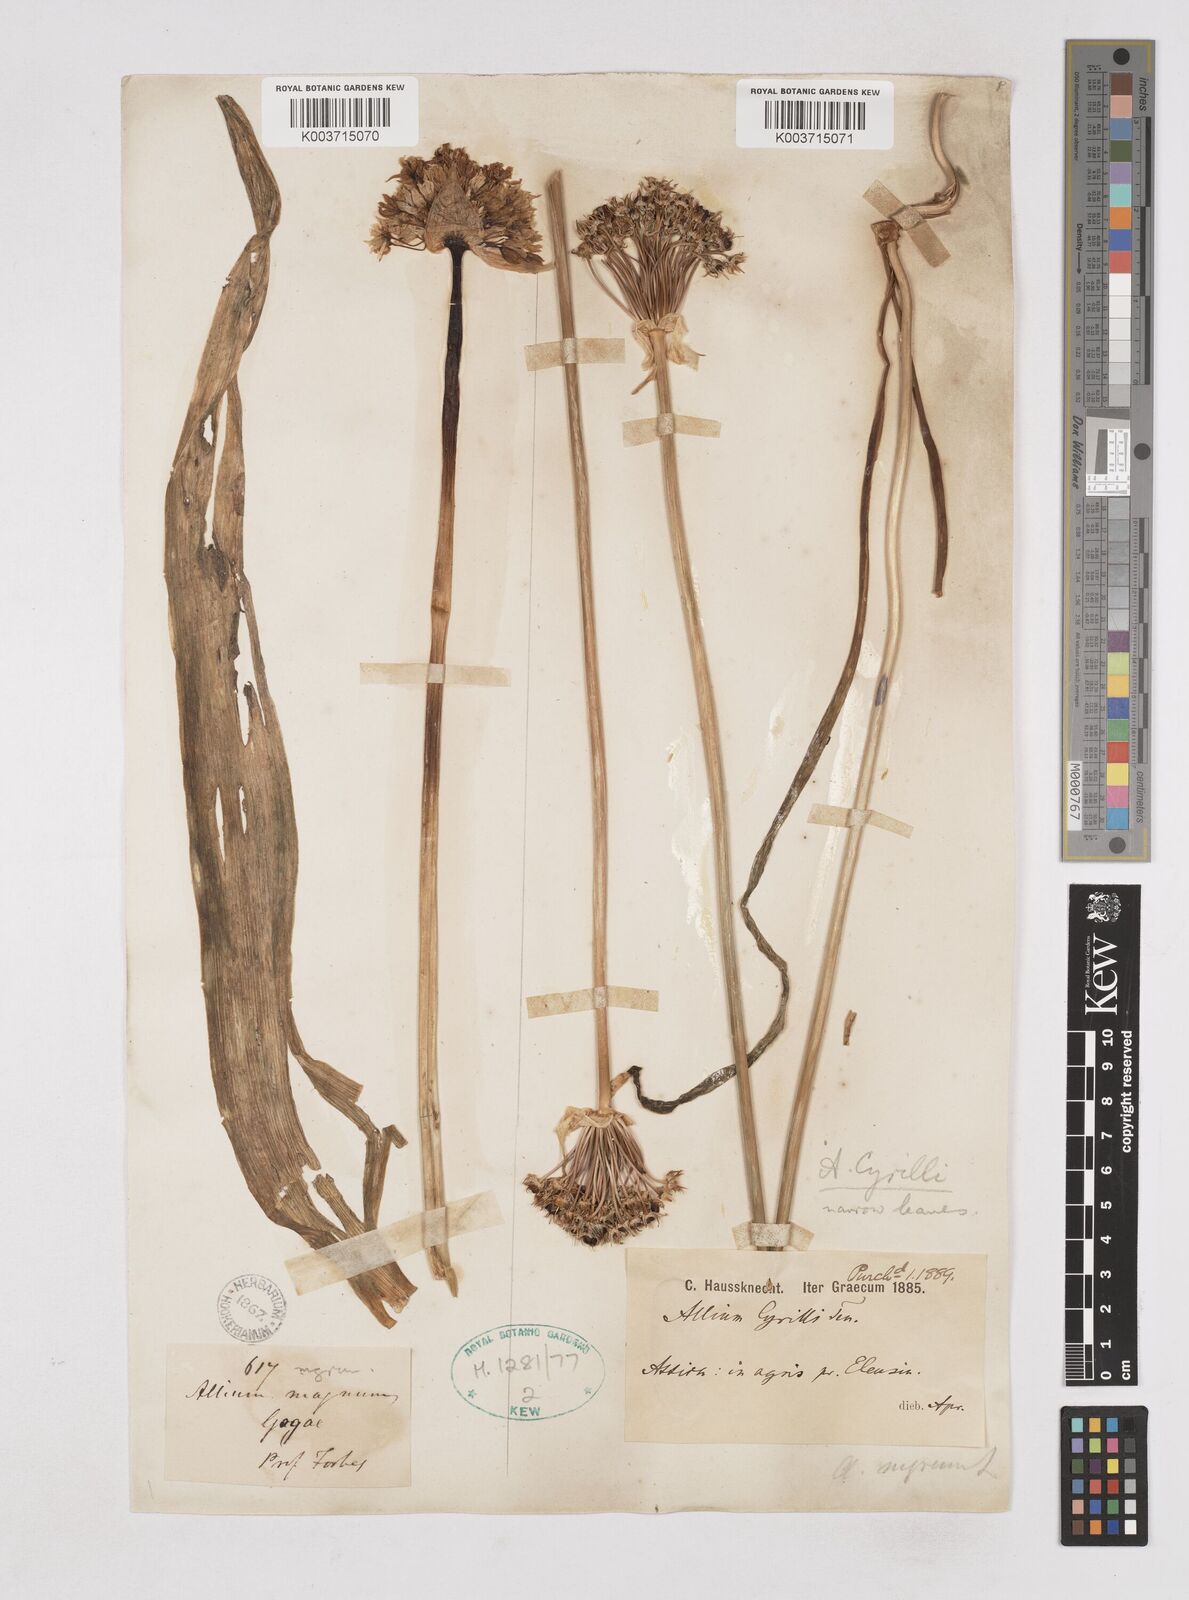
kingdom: Plantae
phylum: Tracheophyta
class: Liliopsida
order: Asparagales
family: Amaryllidaceae
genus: Allium
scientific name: Allium cyrilli
